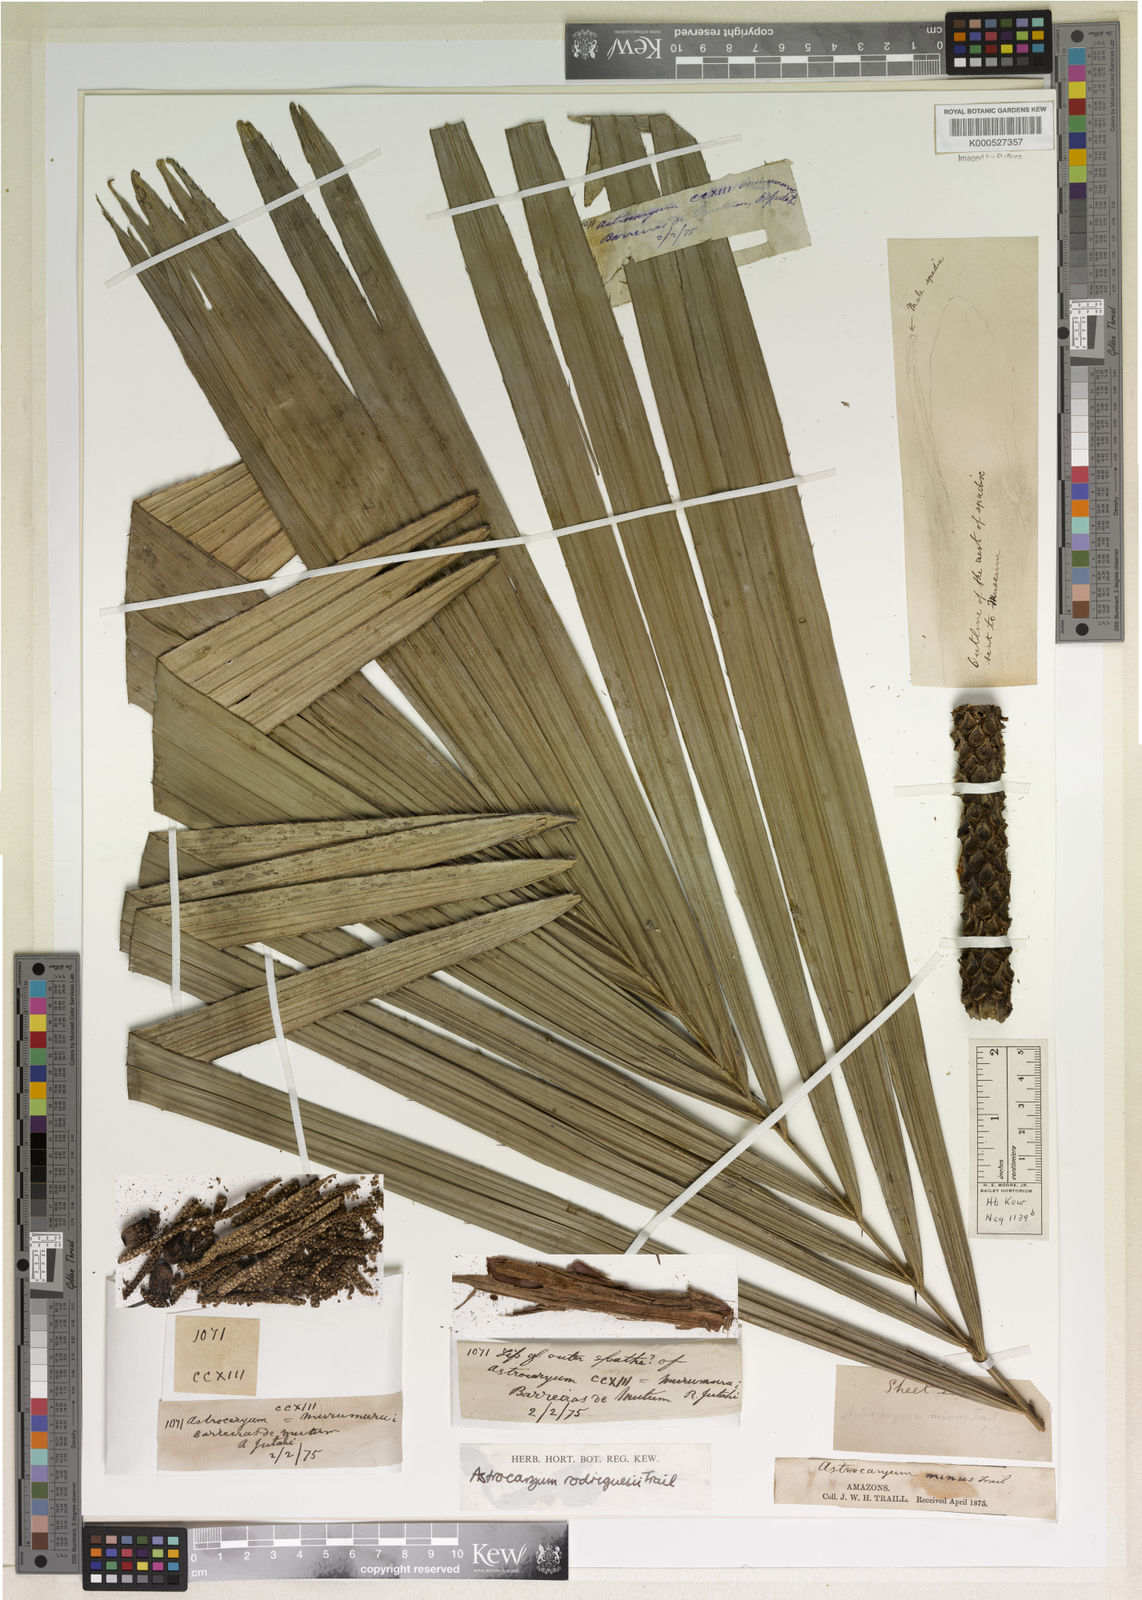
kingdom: Plantae
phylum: Tracheophyta
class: Liliopsida
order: Arecales
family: Arecaceae
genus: Astrocaryum
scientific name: Astrocaryum rodriguesii
